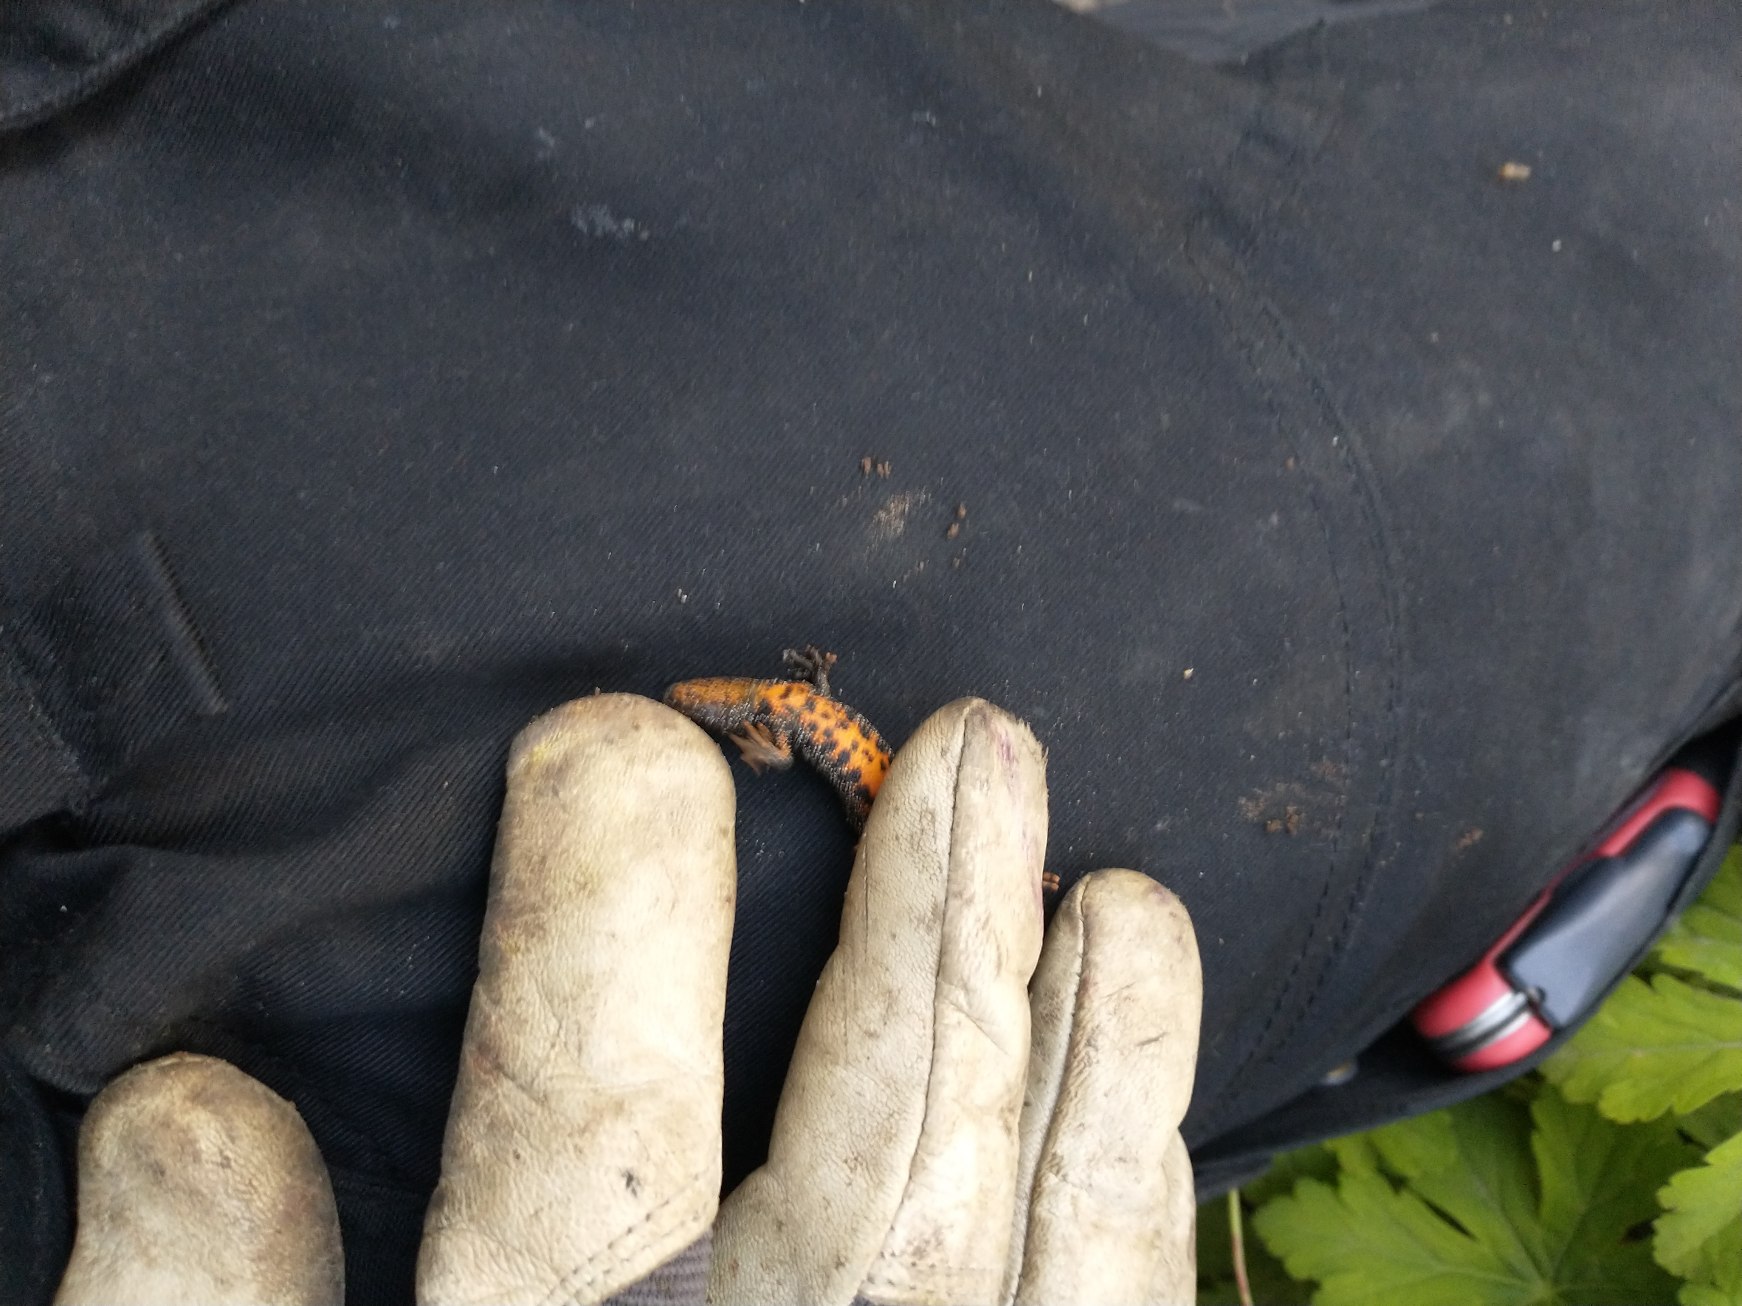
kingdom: Animalia
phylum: Chordata
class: Amphibia
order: Caudata
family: Salamandridae
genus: Triturus
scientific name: Triturus cristatus
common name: Stor vandsalamander
